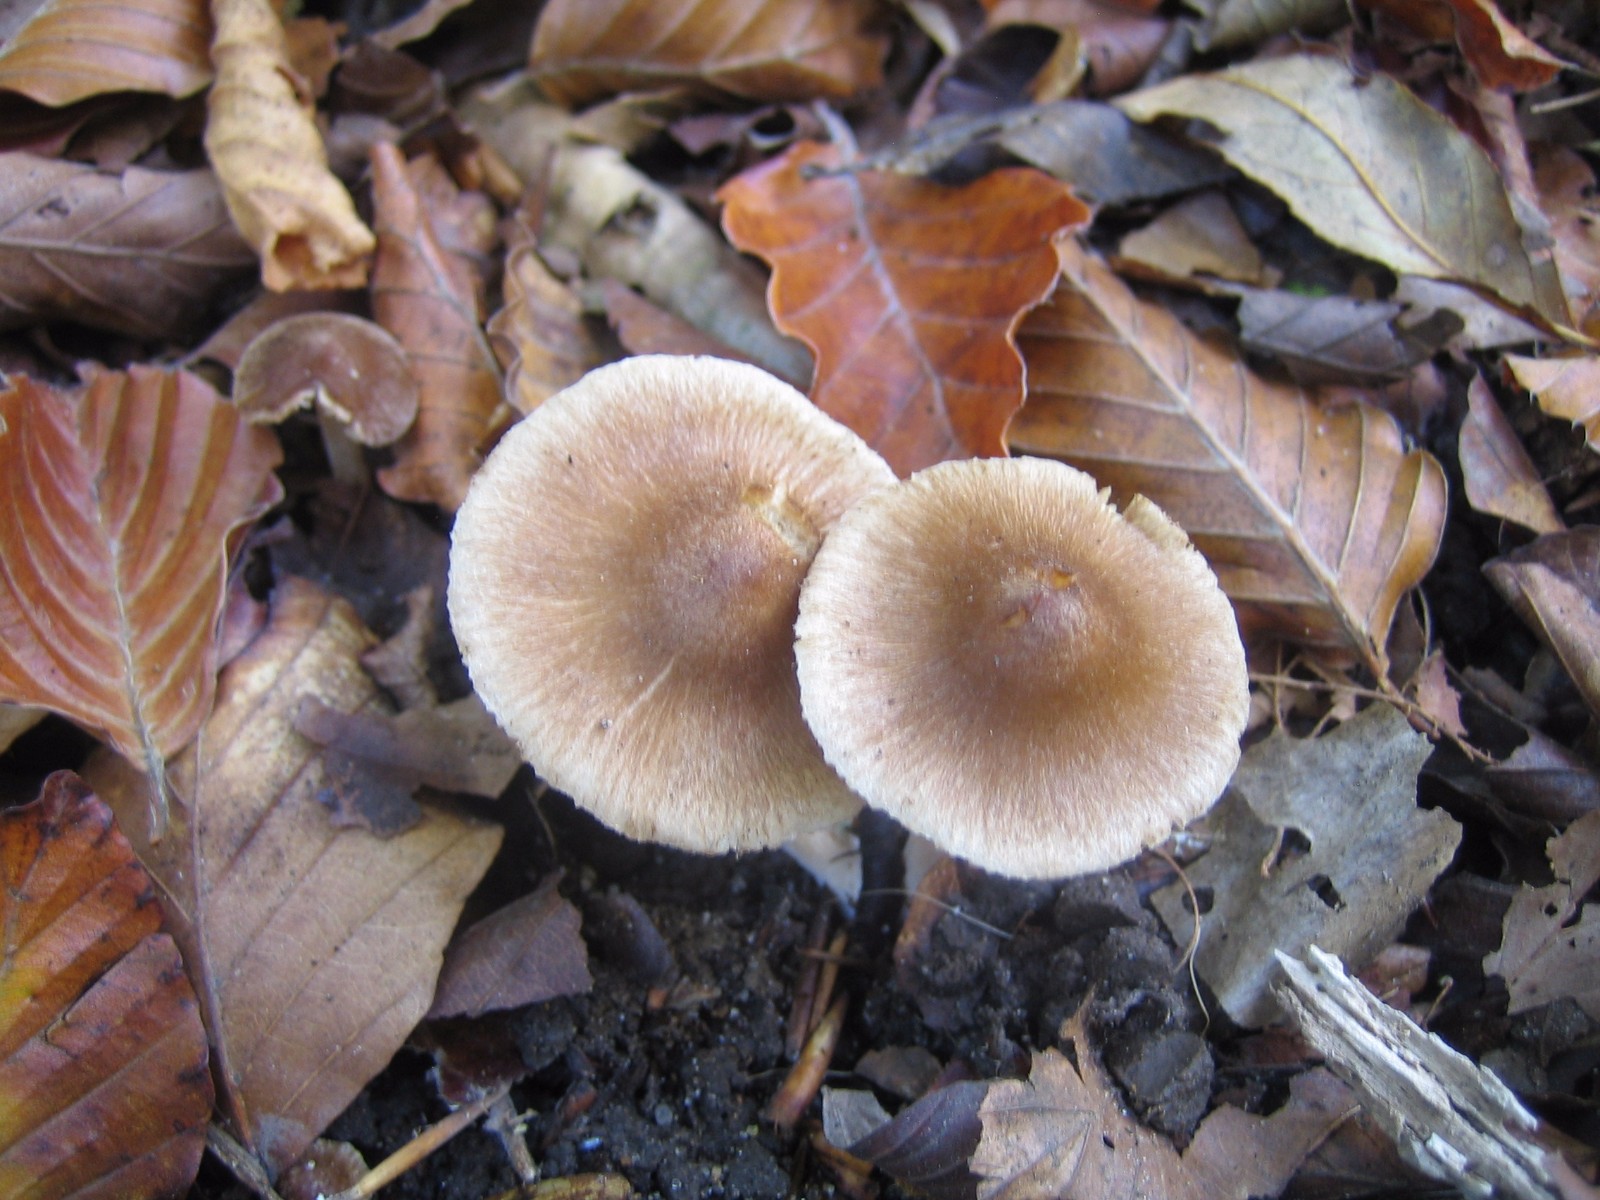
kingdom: Fungi
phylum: Basidiomycota
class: Agaricomycetes
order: Agaricales
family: Inocybaceae
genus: Inocybe
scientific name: Inocybe
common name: trævlhat
